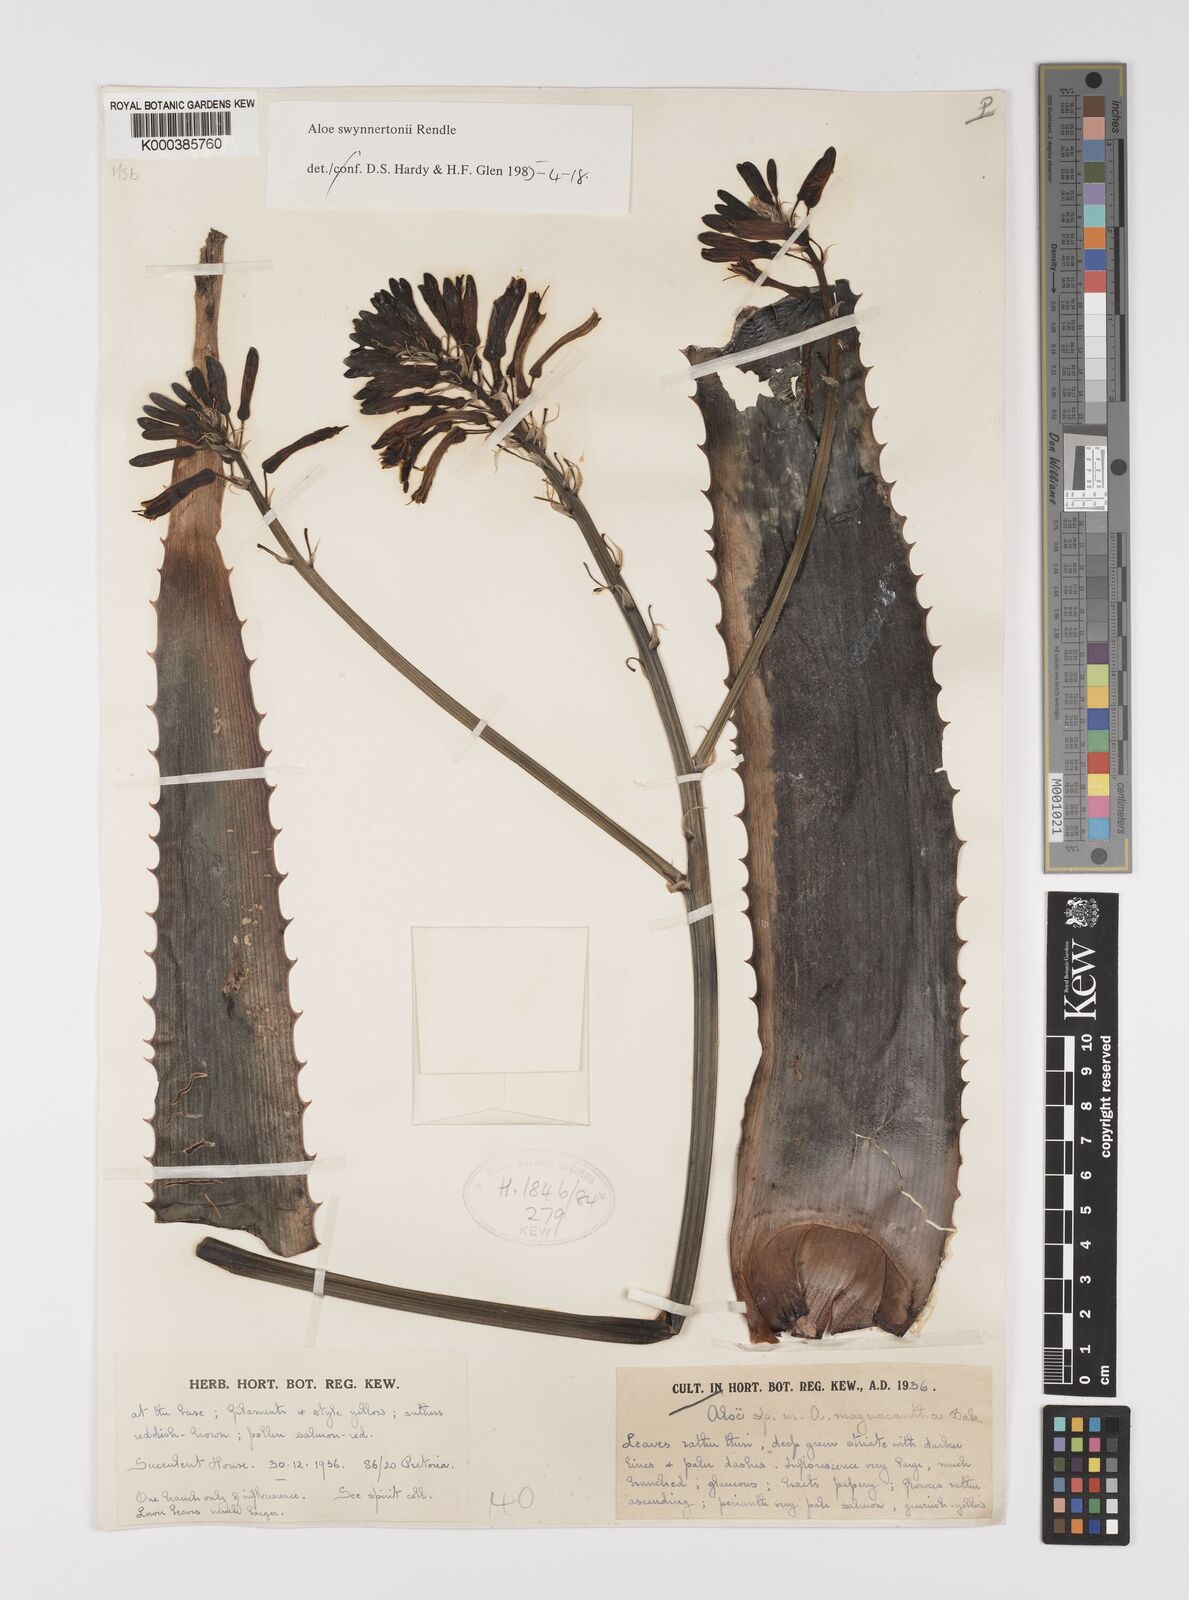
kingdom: Plantae
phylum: Tracheophyta
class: Liliopsida
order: Asparagales
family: Asphodelaceae
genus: Aloe
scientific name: Aloe swynnertonii
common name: Swynnerton's aloe
